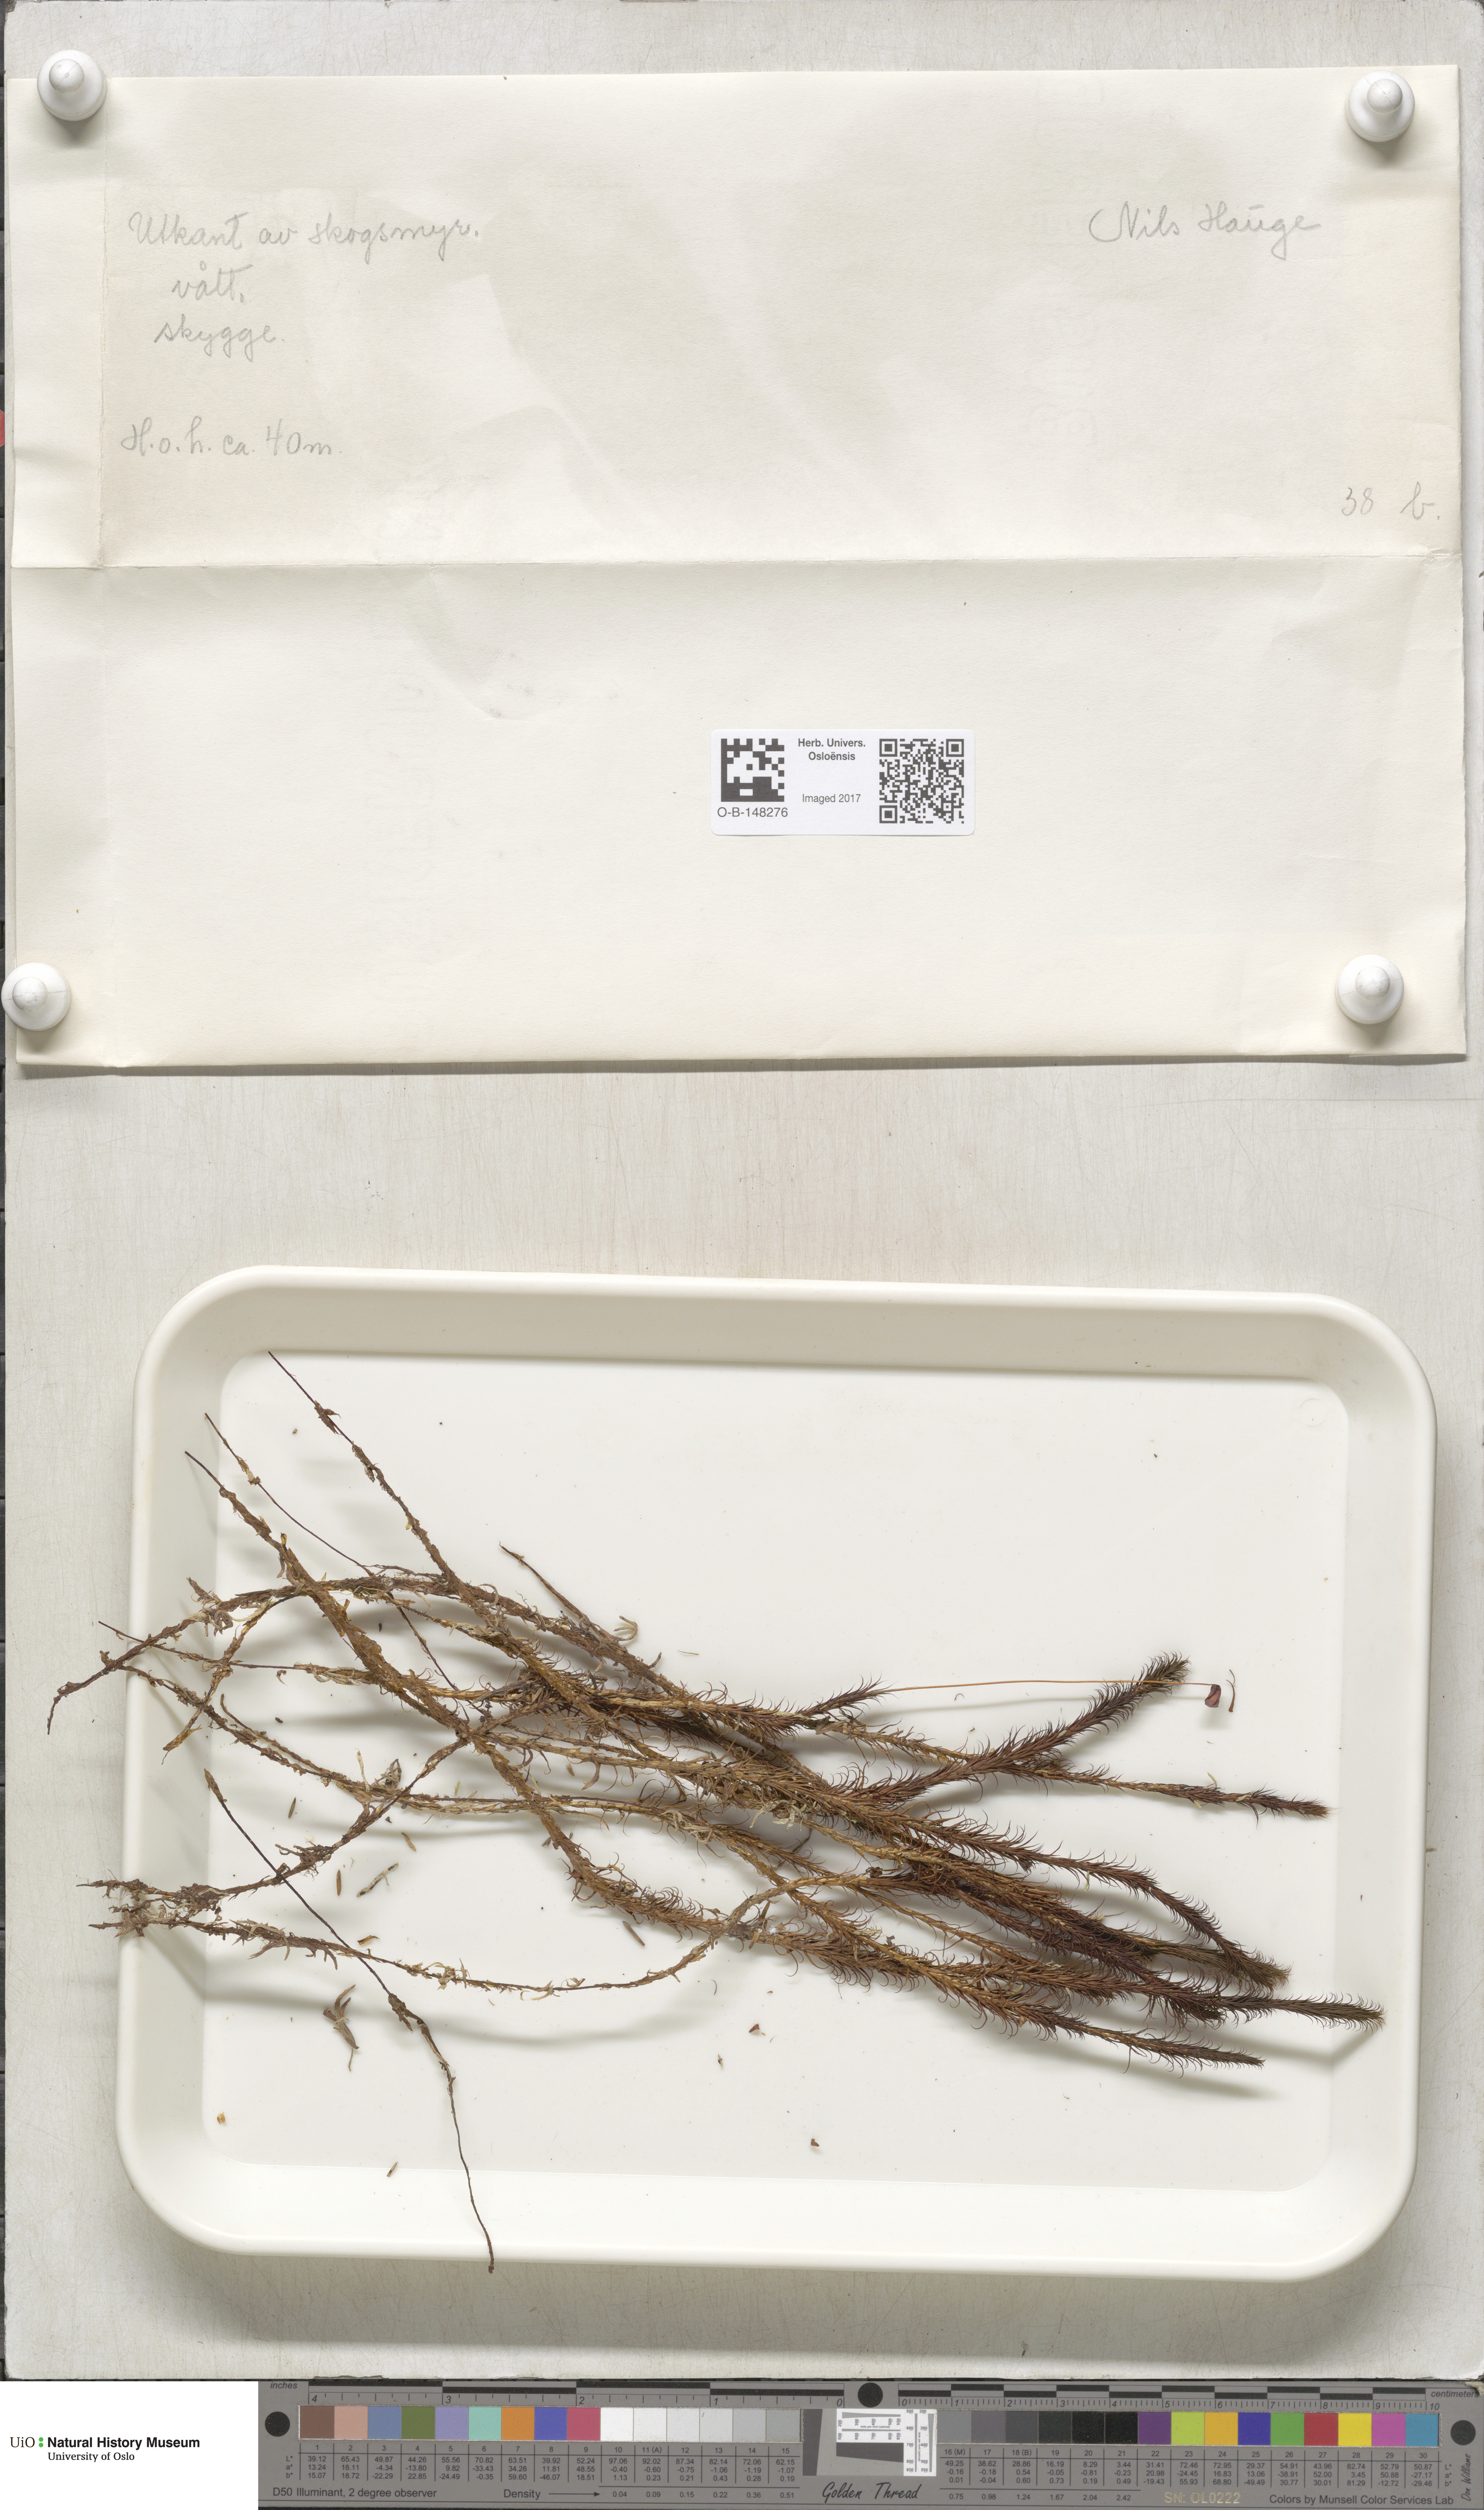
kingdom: Plantae
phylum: Bryophyta
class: Polytrichopsida
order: Polytrichales
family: Polytrichaceae
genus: Polytrichum
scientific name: Polytrichum commune
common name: Common haircap
